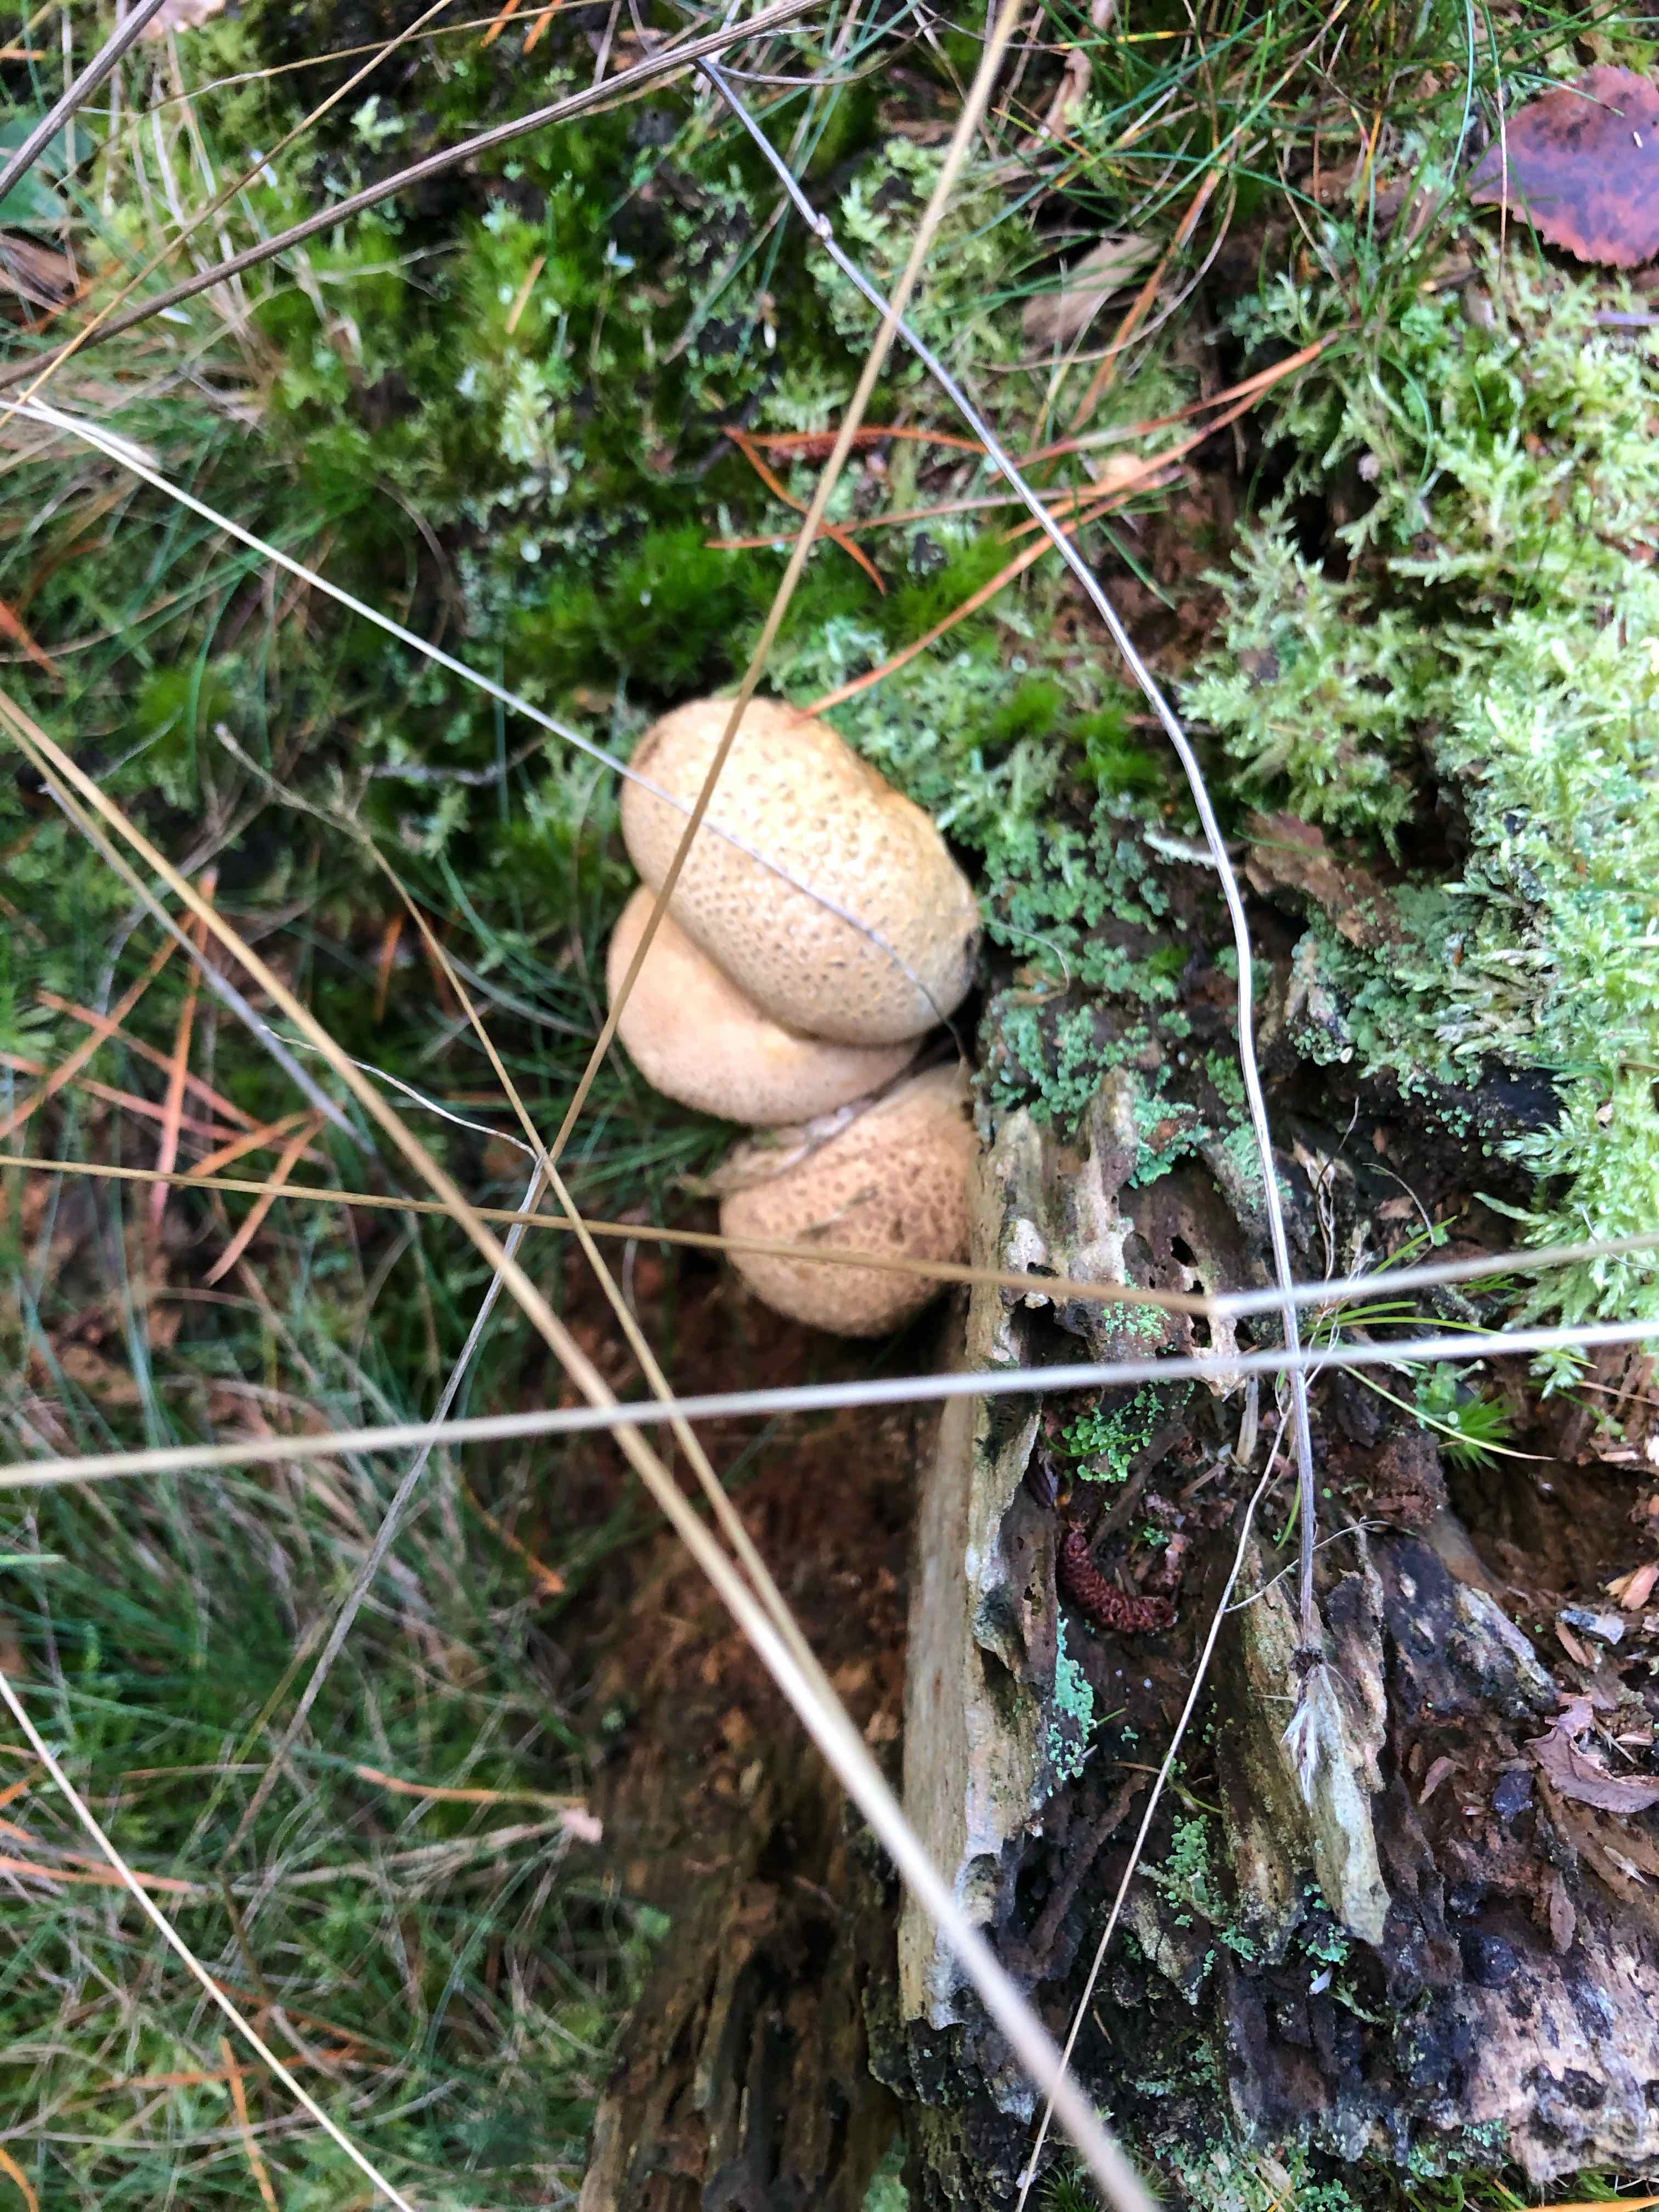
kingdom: Fungi
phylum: Basidiomycota
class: Agaricomycetes
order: Boletales
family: Sclerodermataceae
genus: Scleroderma
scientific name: Scleroderma citrinum
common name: almindelig bruskbold
